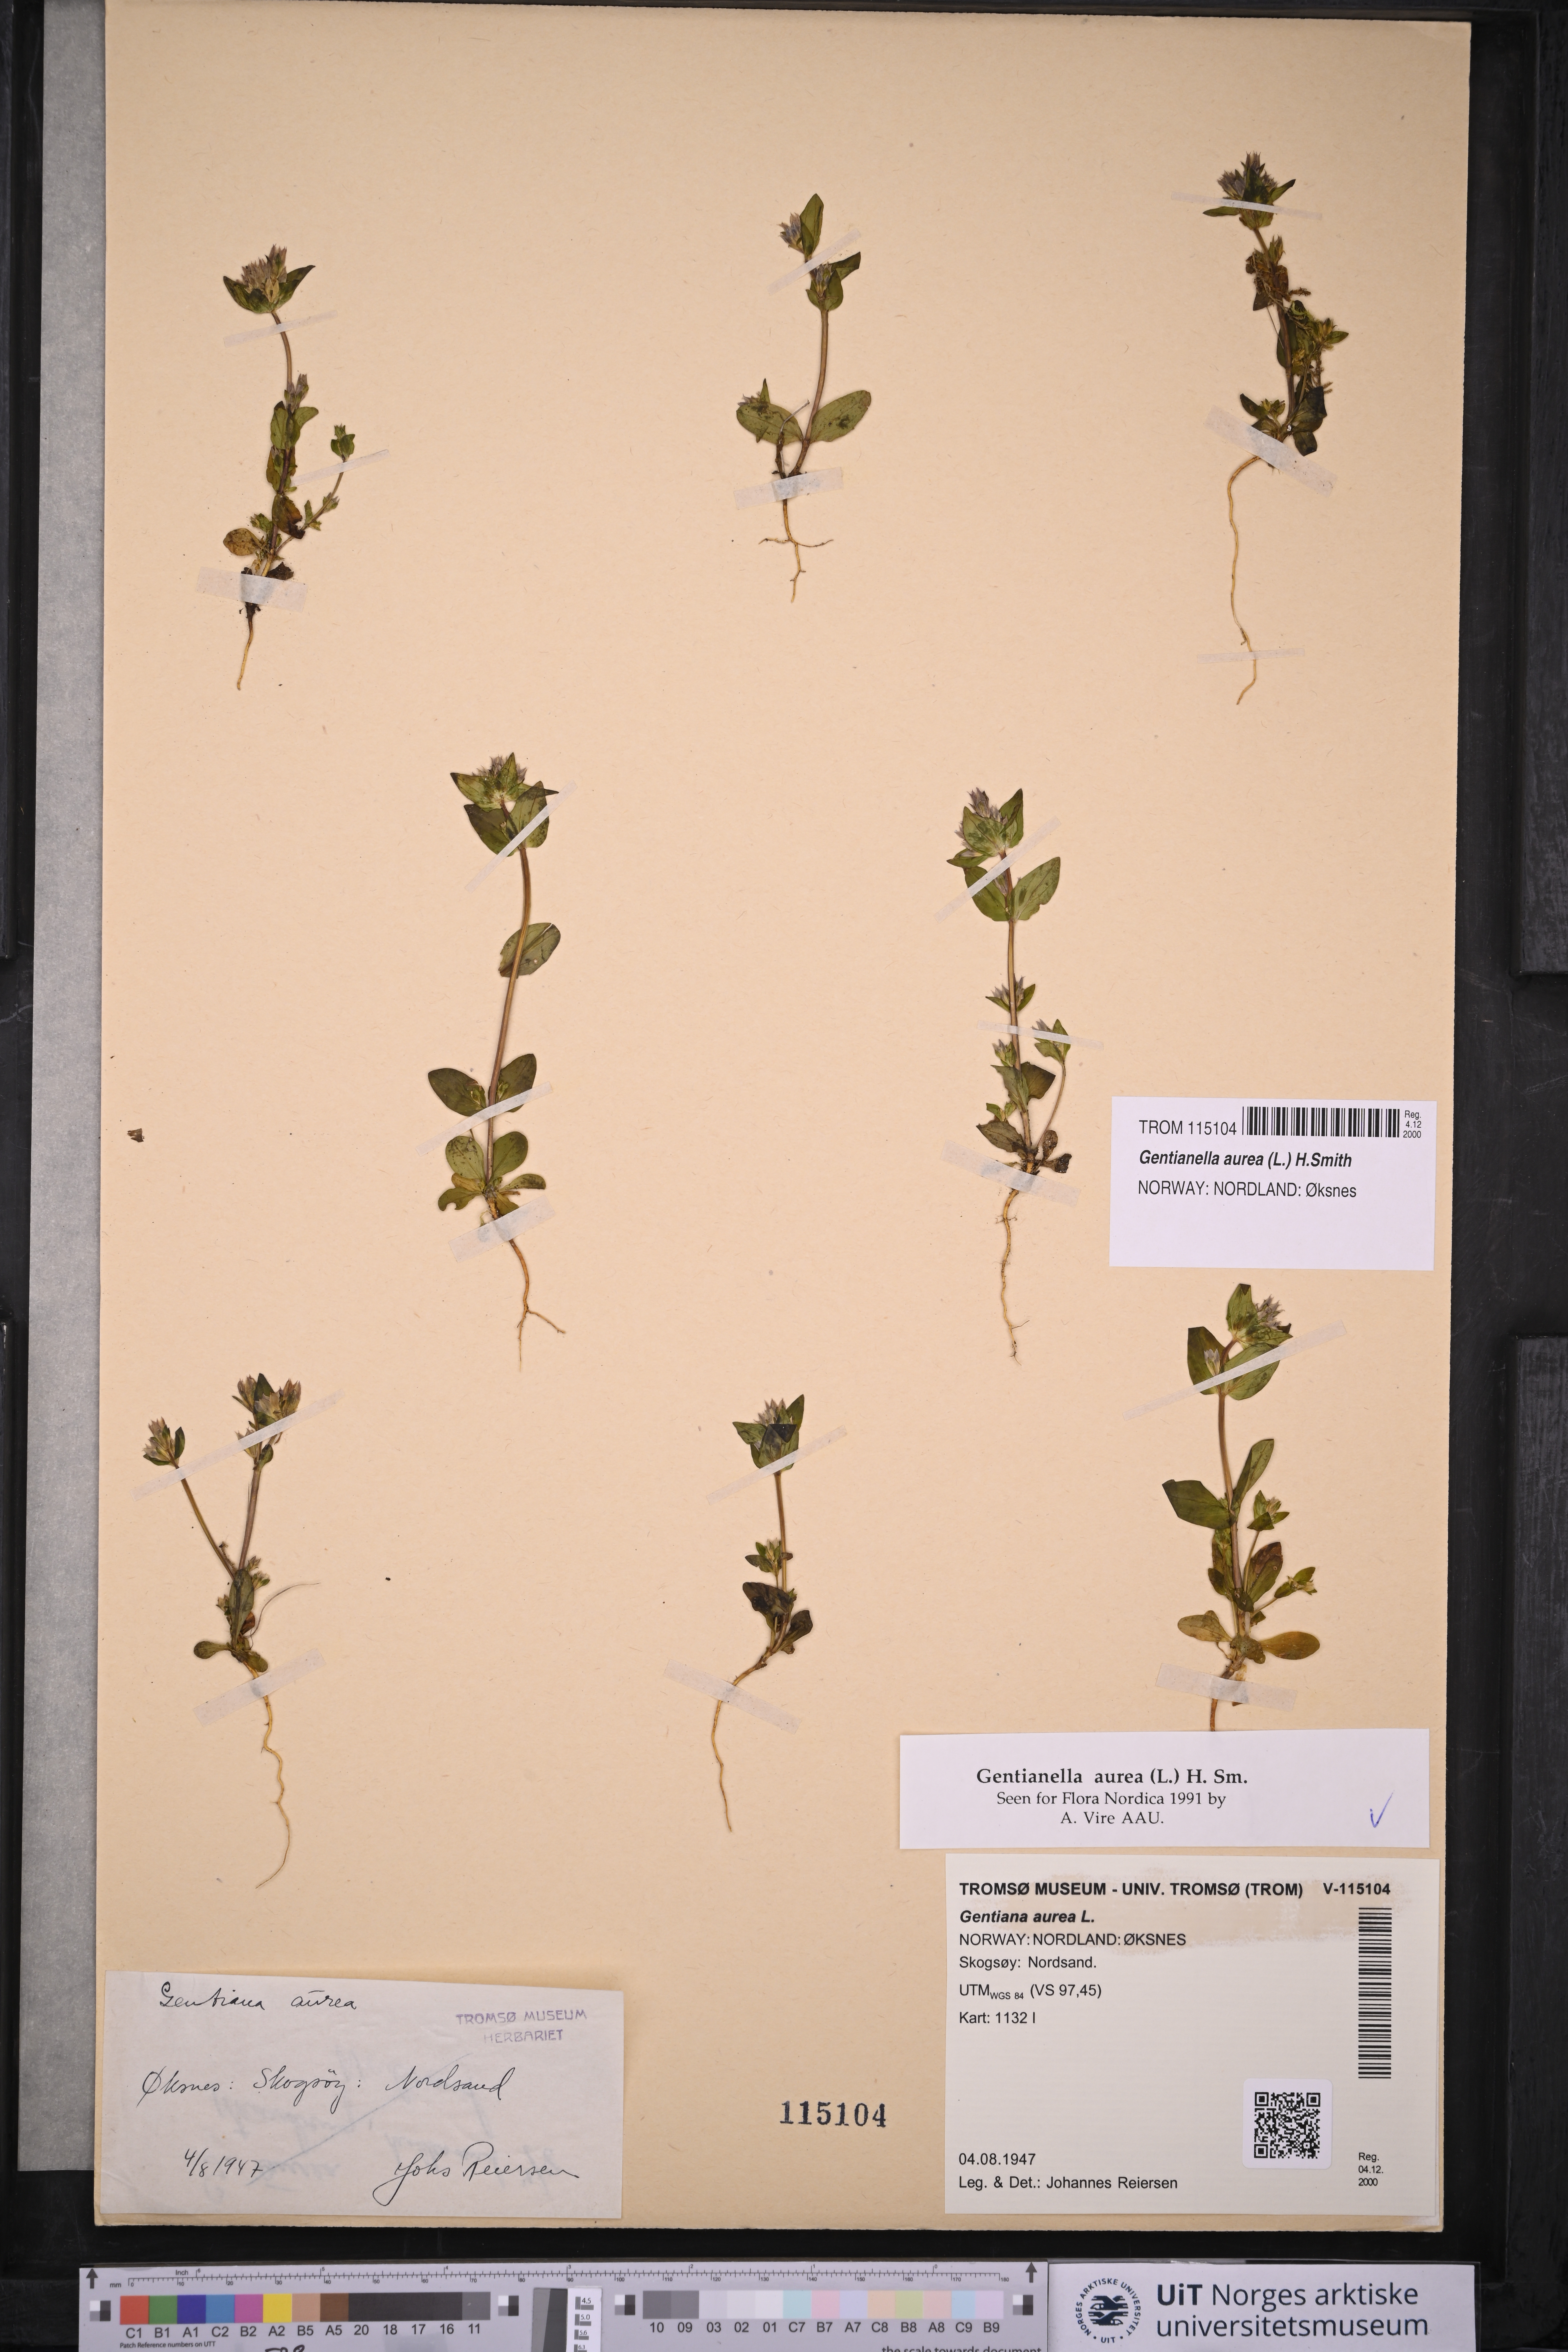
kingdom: Plantae
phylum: Tracheophyta
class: Magnoliopsida
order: Gentianales
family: Gentianaceae
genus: Gentianella
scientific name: Gentianella aurea
